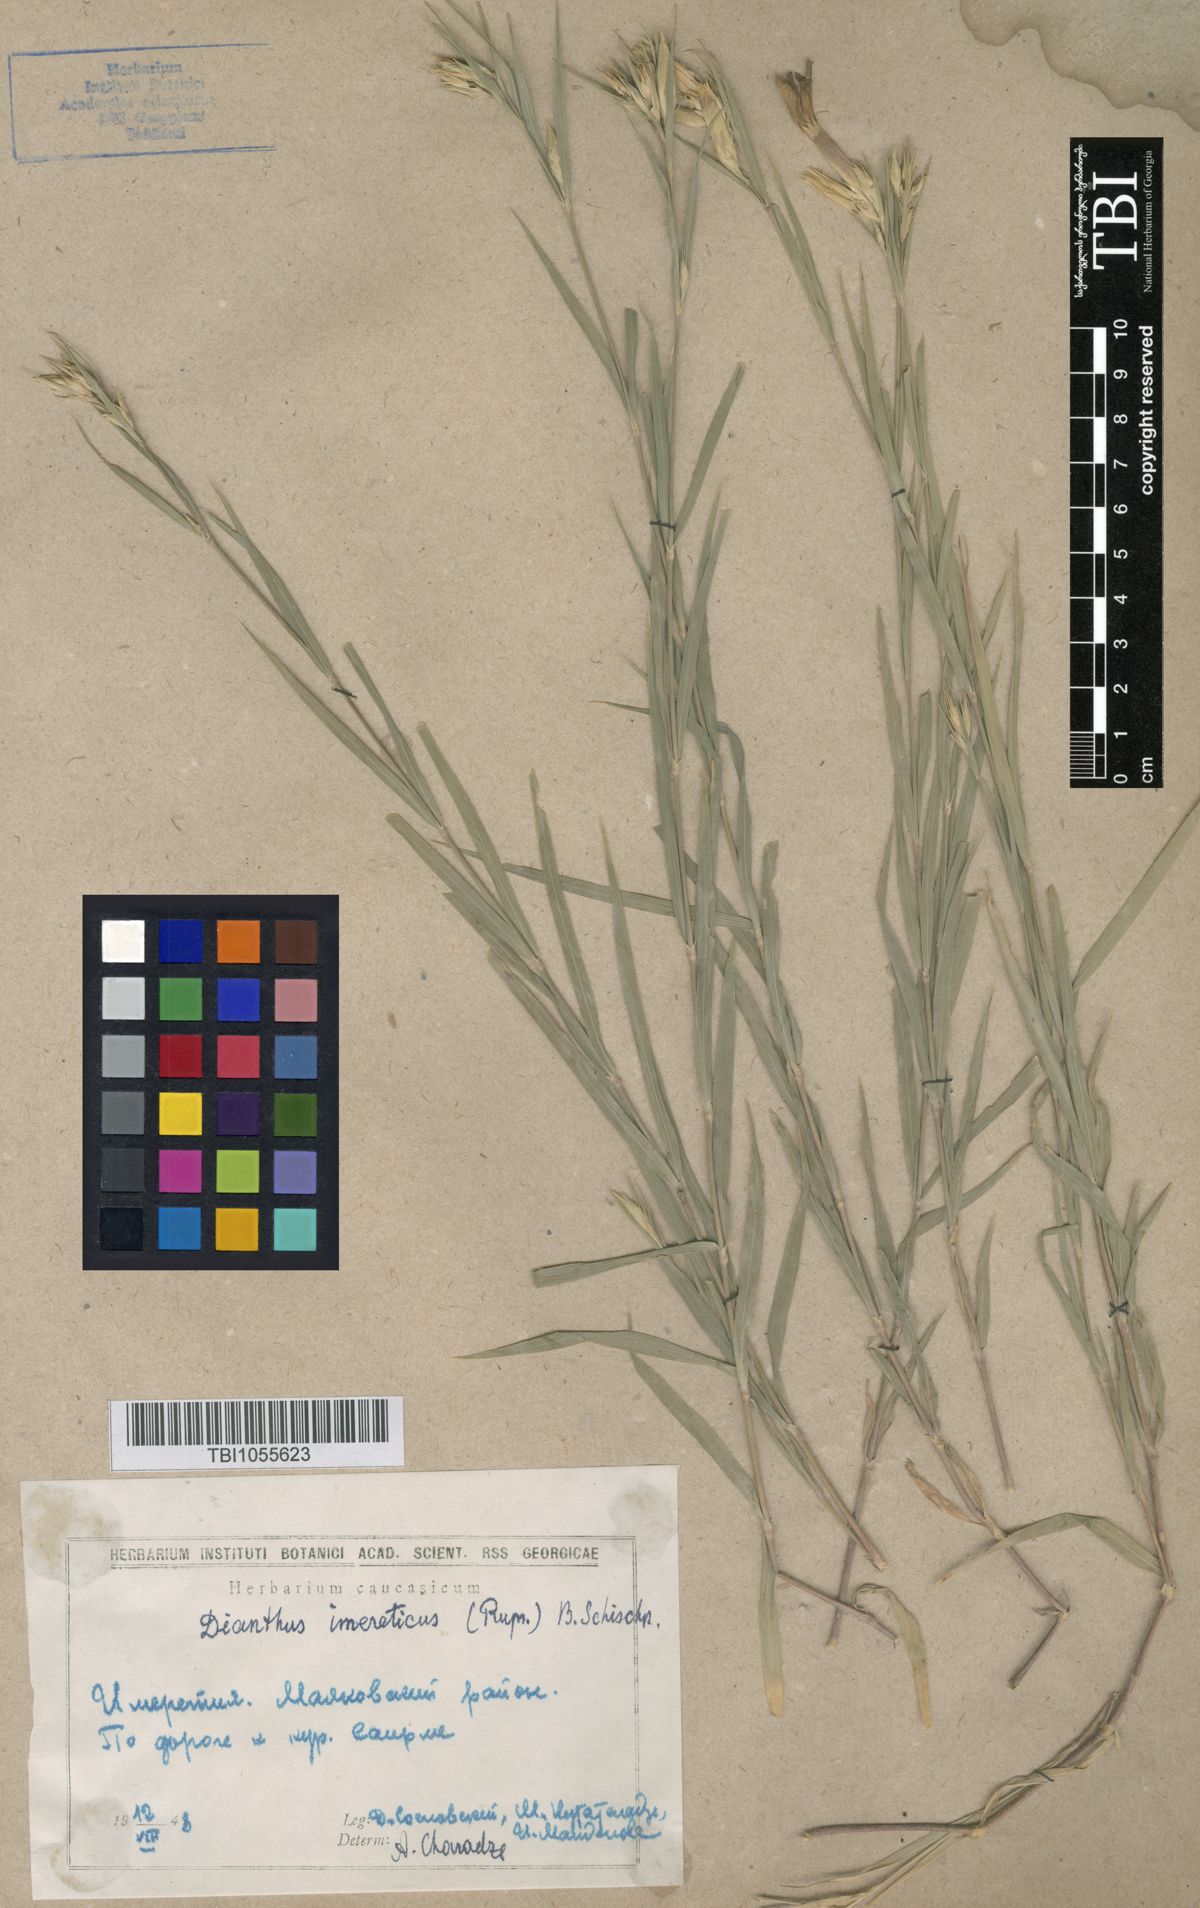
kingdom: Plantae
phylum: Tracheophyta
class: Magnoliopsida
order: Caryophyllales
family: Caryophyllaceae
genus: Dianthus
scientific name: Dianthus imereticus
